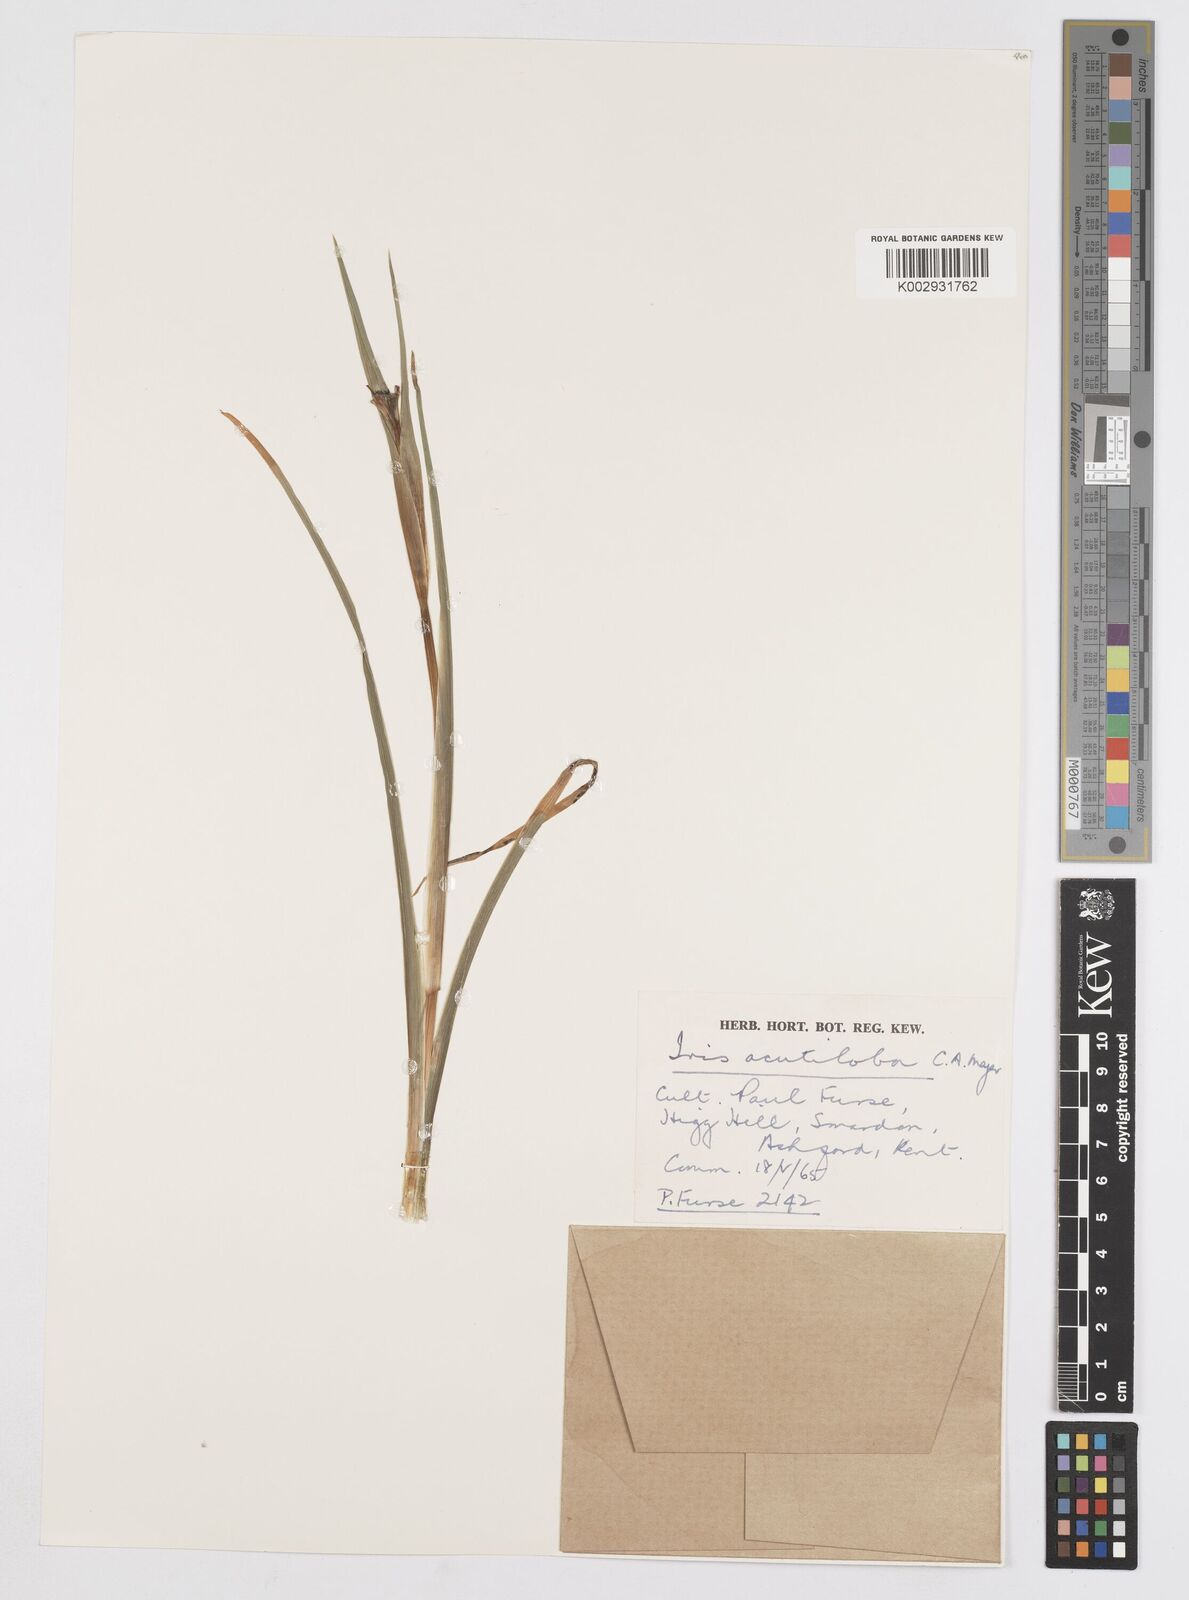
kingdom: Plantae
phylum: Tracheophyta
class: Liliopsida
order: Asparagales
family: Iridaceae
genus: Iris
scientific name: Iris acutiloba
